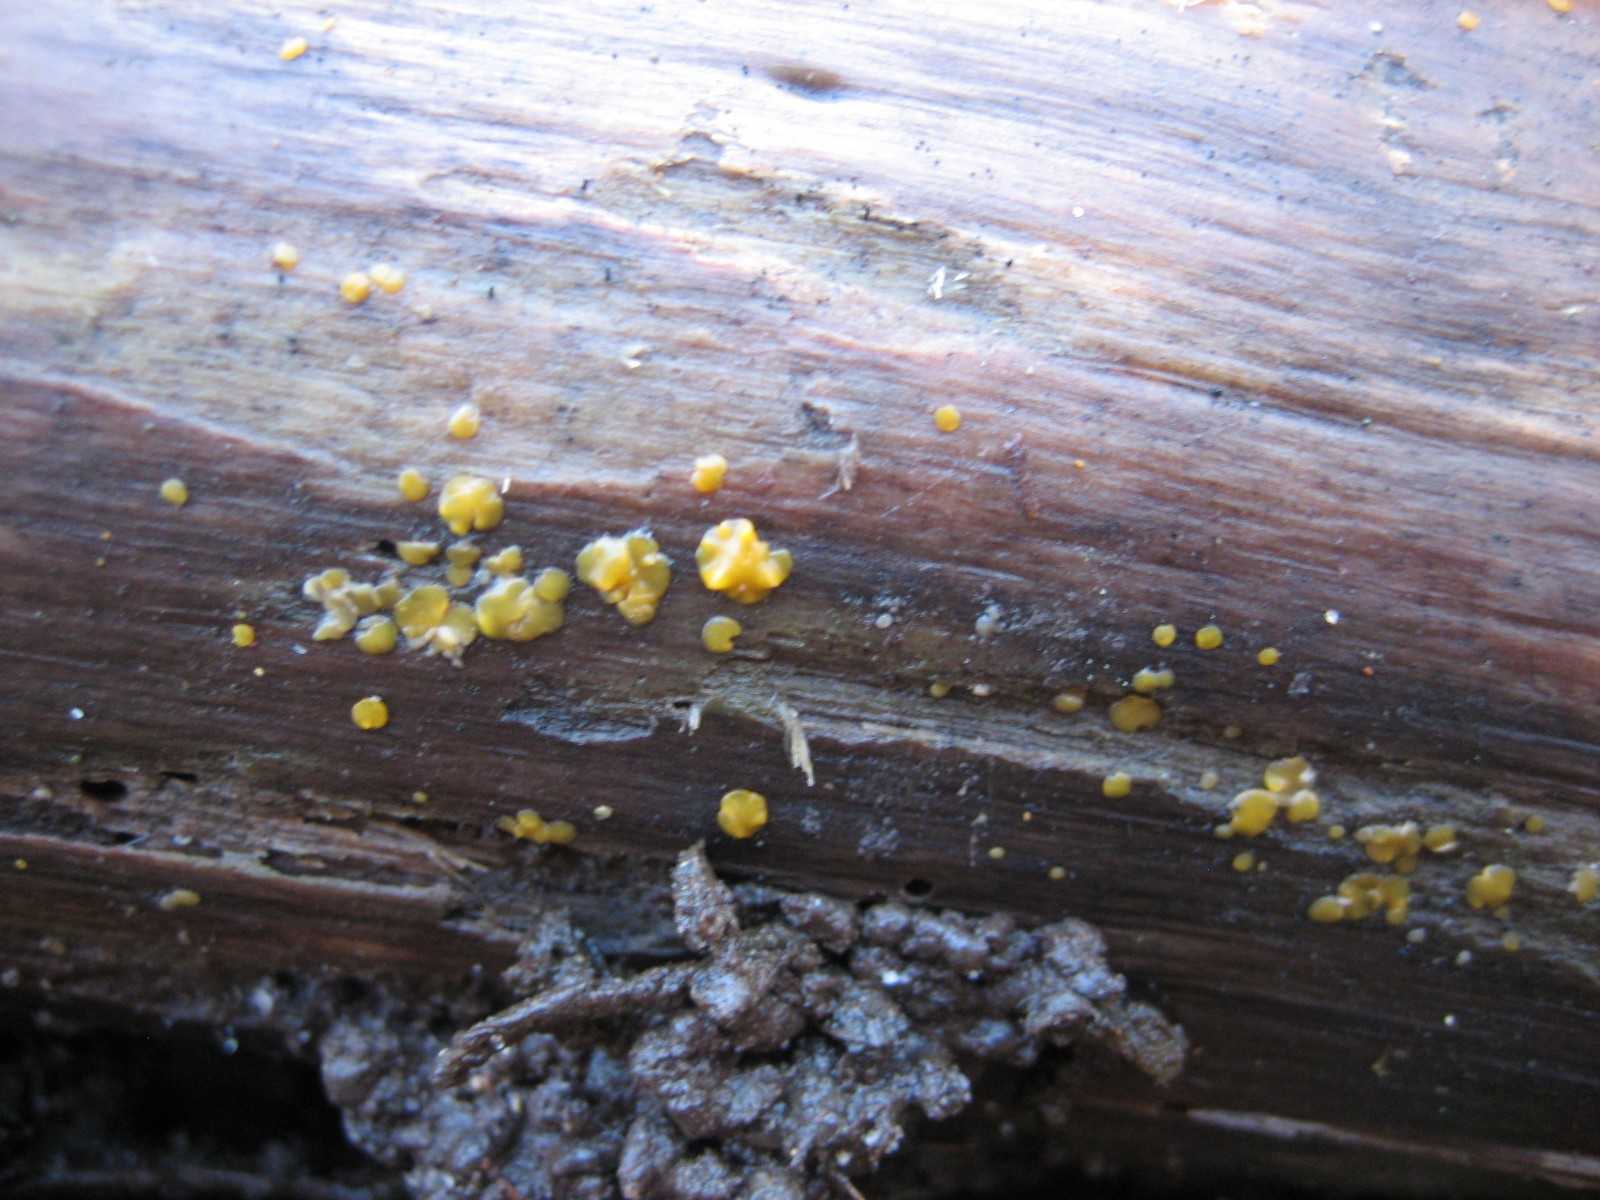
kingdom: Fungi
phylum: Basidiomycota
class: Dacrymycetes
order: Dacrymycetales
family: Dacrymycetaceae
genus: Dacrymyces
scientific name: Dacrymyces lacrymalis
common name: rynket tåresvamp
